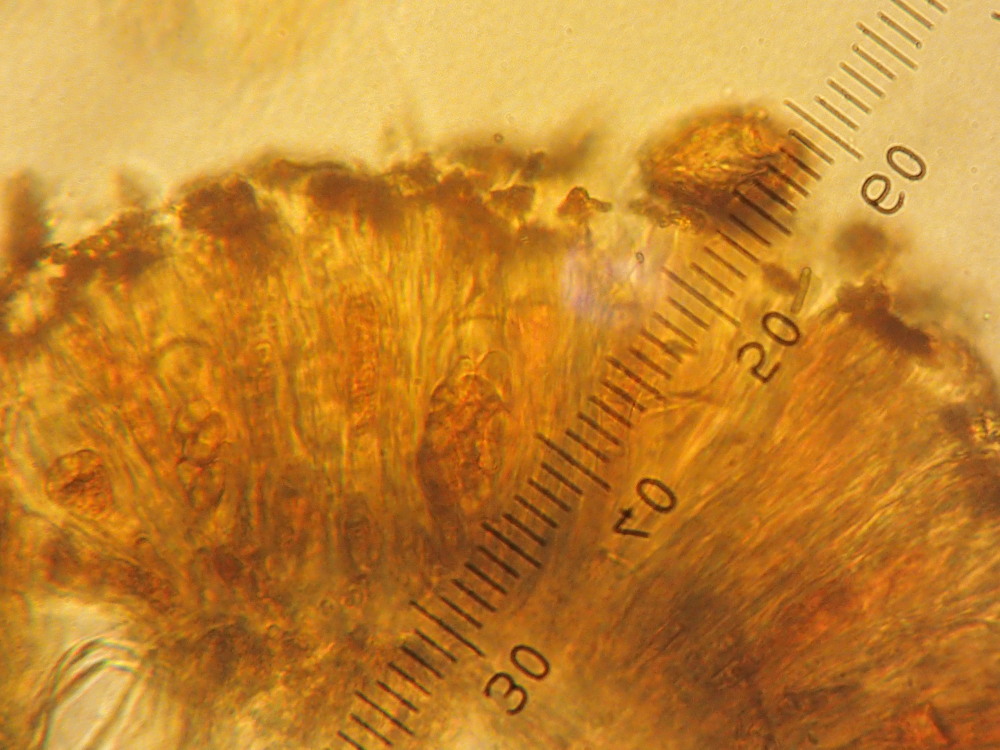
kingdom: Fungi
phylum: Ascomycota
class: Candelariomycetes
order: Candelariales
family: Candelariaceae
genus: Candelariella
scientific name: Candelariella vitellina
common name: almindelig æggeblommelav
